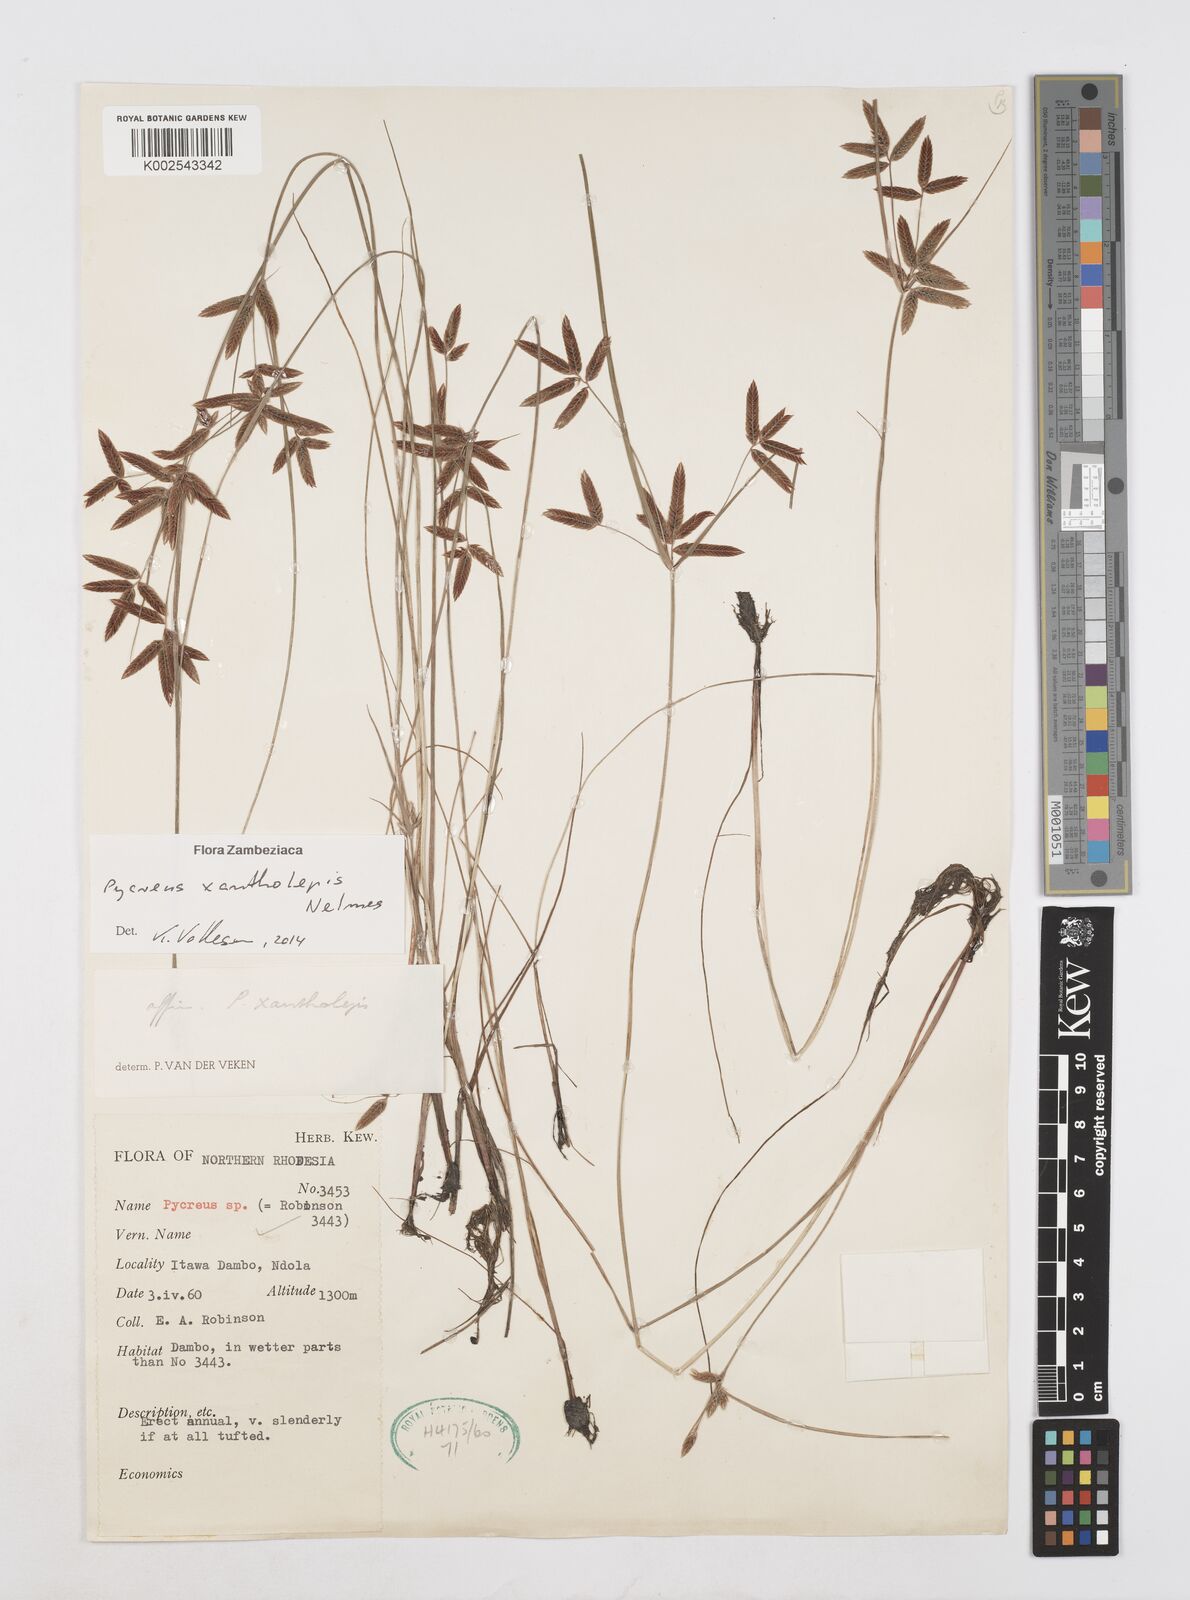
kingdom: Plantae
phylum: Tracheophyta
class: Liliopsida
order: Poales
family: Cyperaceae
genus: Cyperus
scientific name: Cyperus xantholepis
